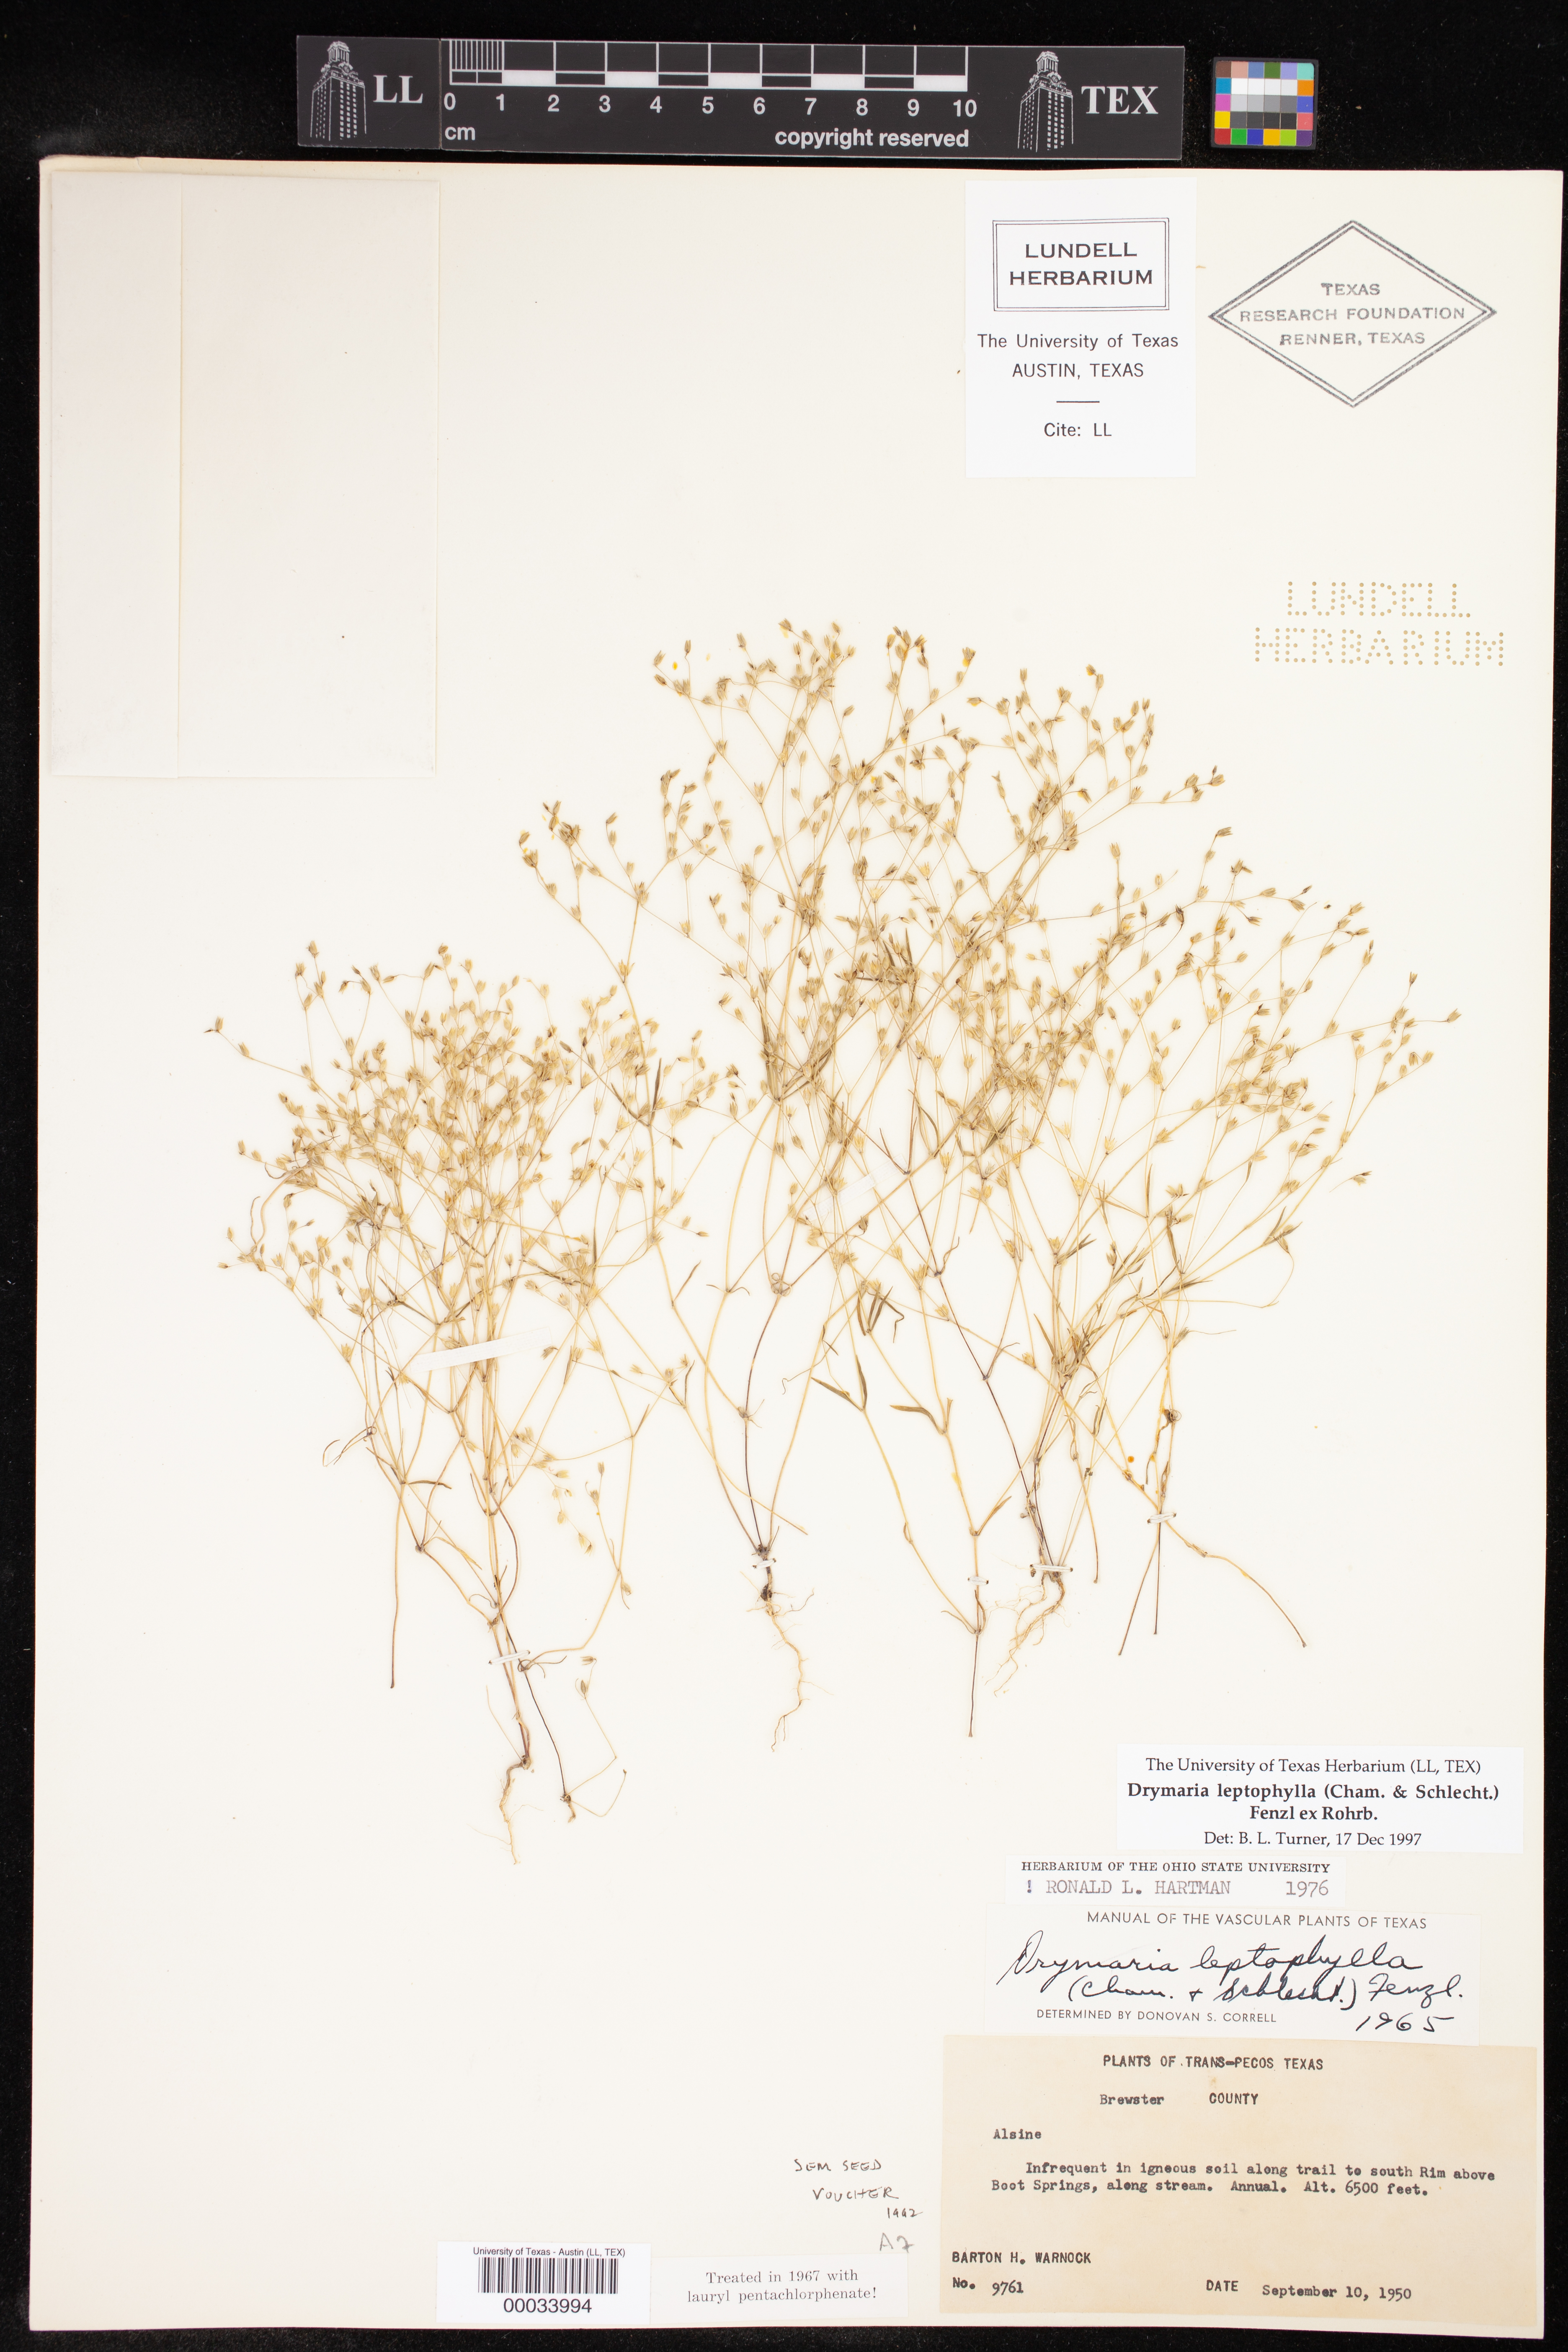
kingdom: Plantae
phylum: Tracheophyta
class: Magnoliopsida
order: Caryophyllales
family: Caryophyllaceae
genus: Drymaria
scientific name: Drymaria leptophylla
